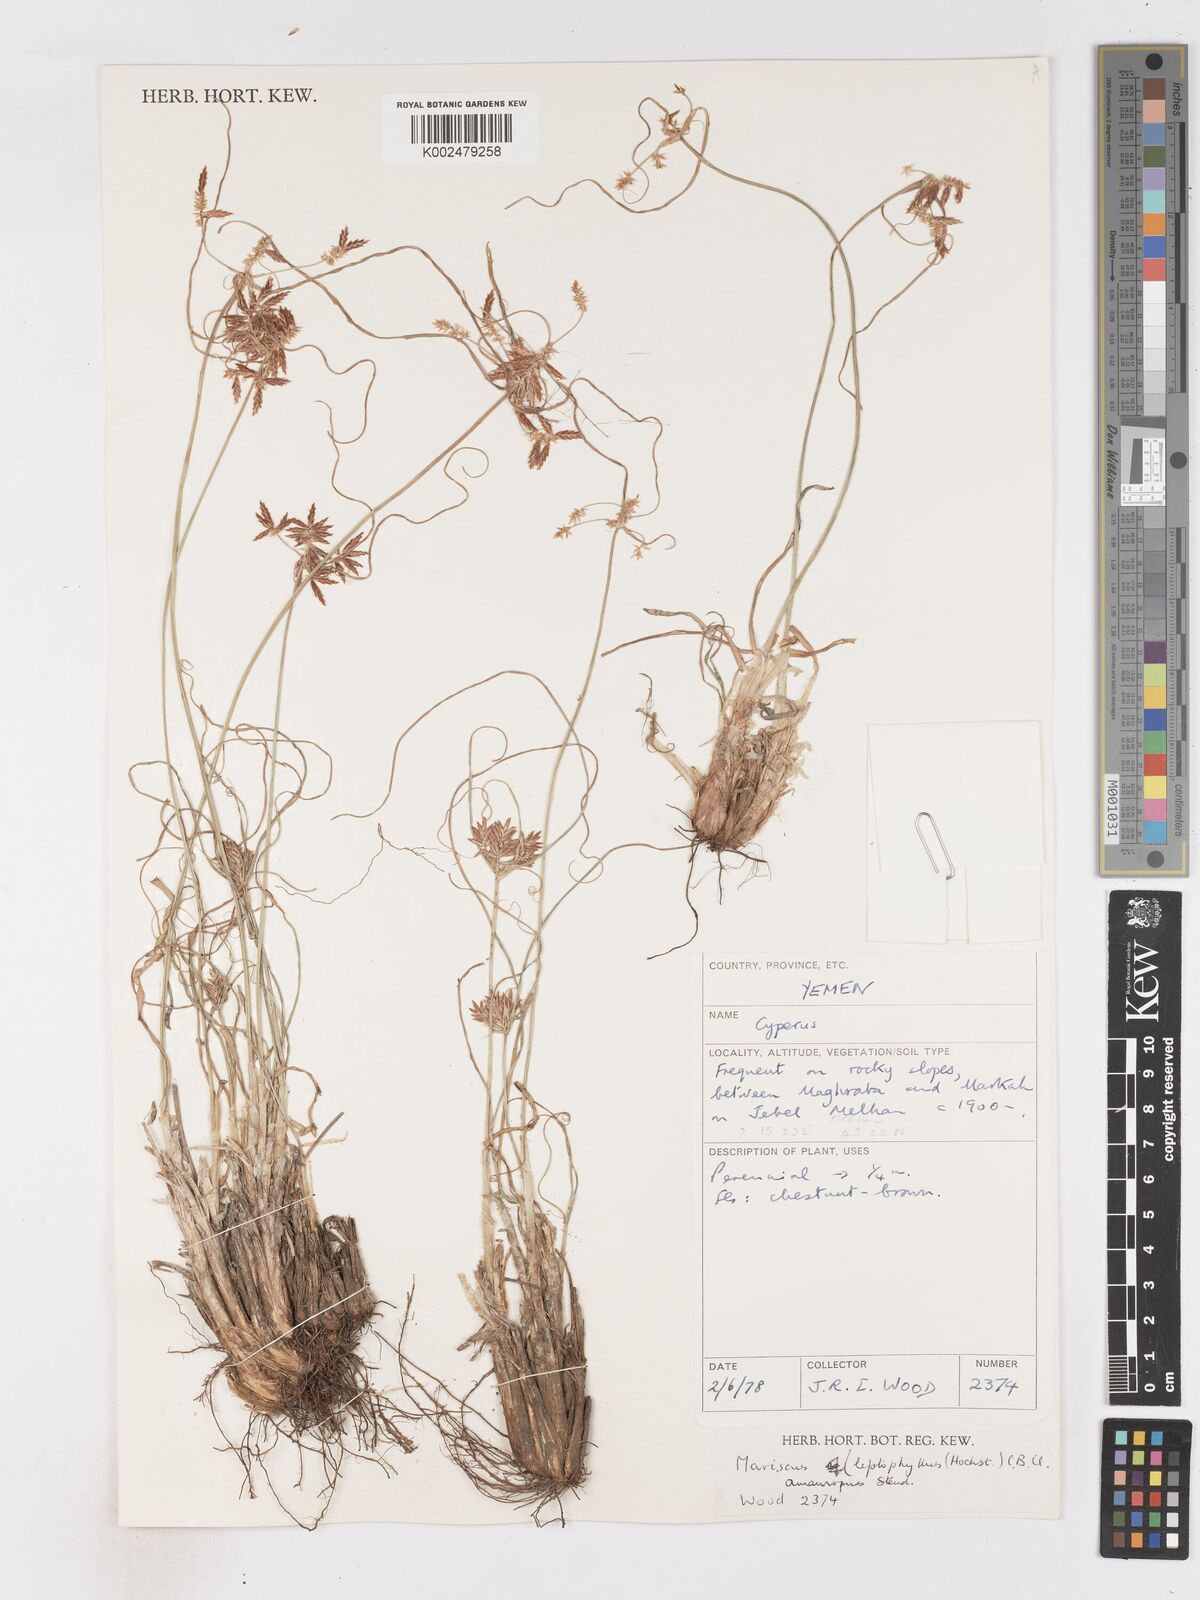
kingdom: Plantae
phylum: Tracheophyta
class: Liliopsida
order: Poales
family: Cyperaceae
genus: Cyperus
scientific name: Cyperus cyperinus
